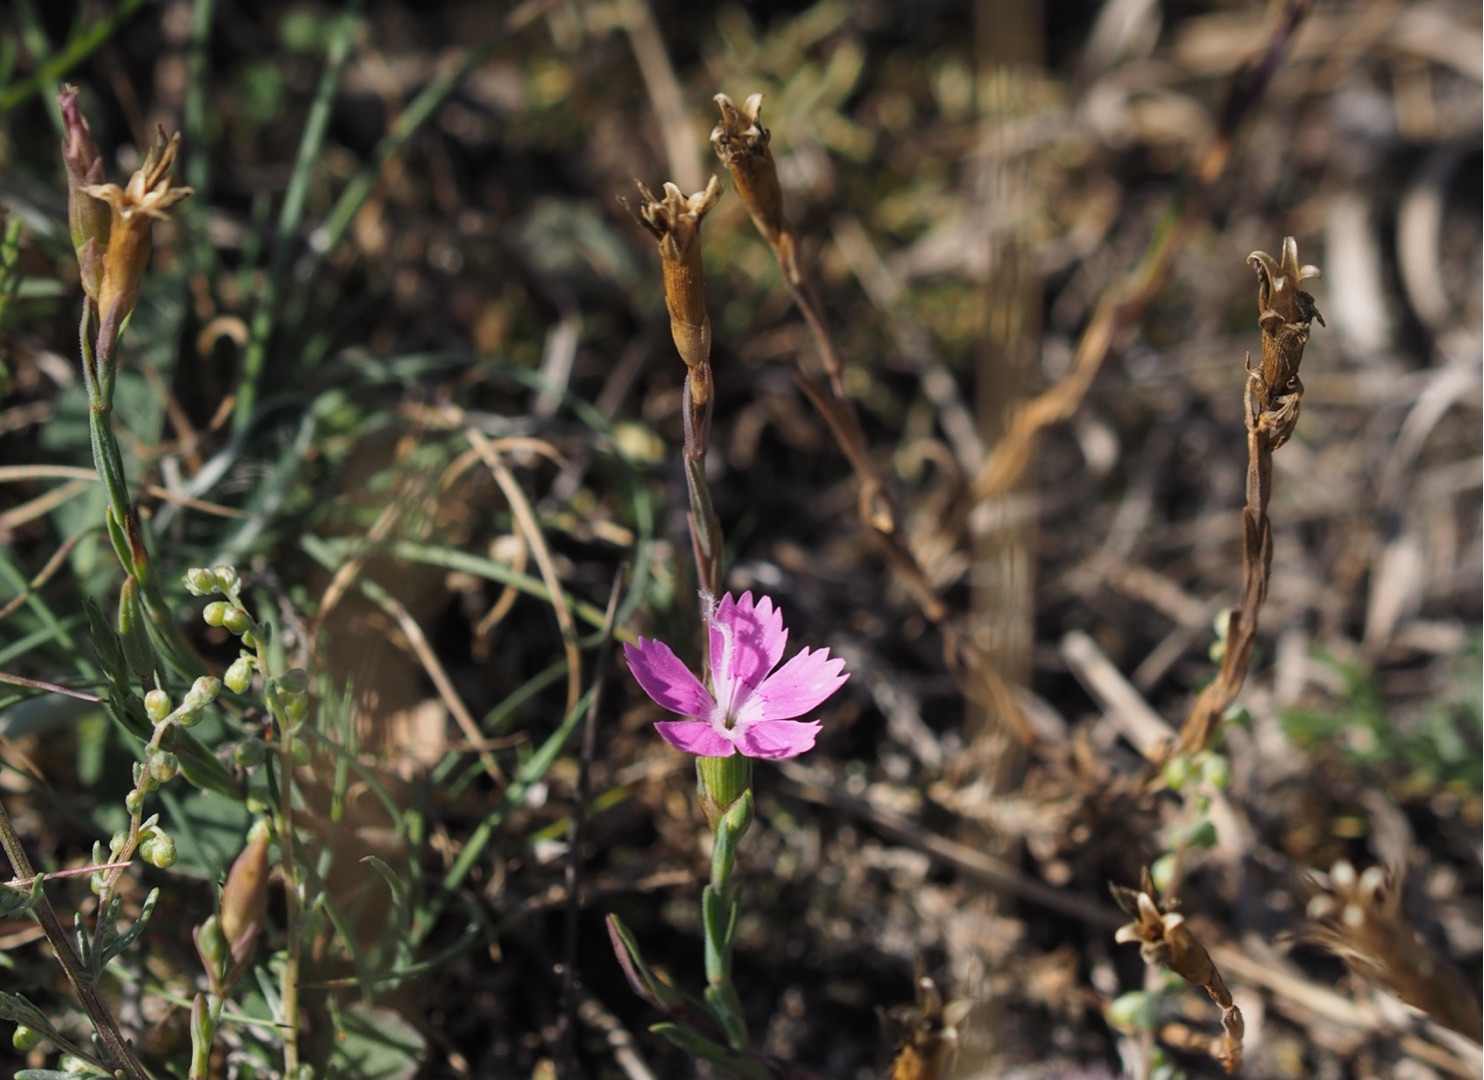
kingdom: Plantae
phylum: Tracheophyta
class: Magnoliopsida
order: Caryophyllales
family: Caryophyllaceae
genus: Dianthus
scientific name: Dianthus deltoides
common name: Bakke-nellike
